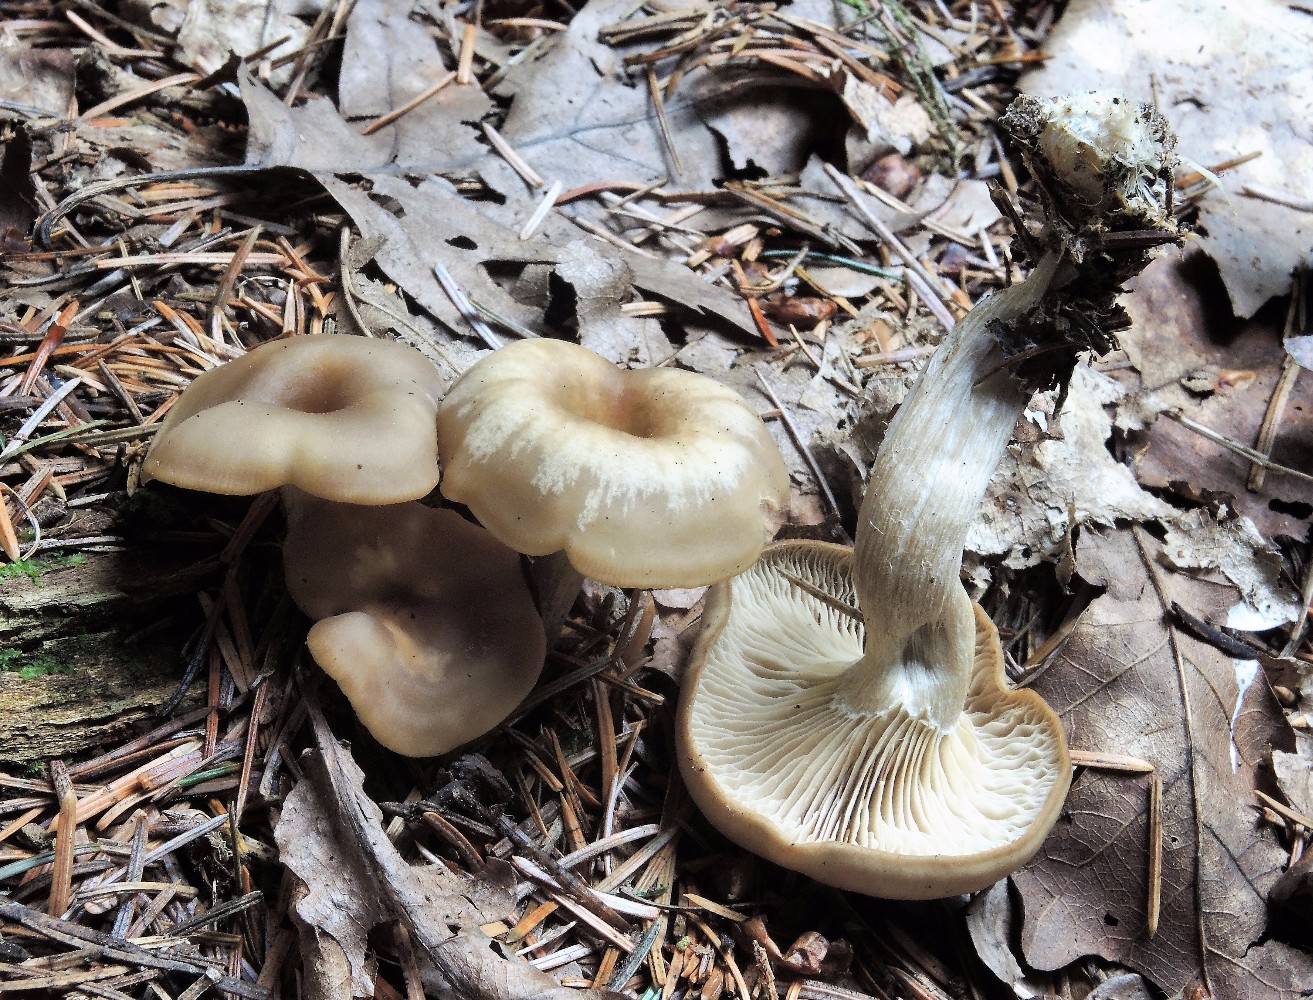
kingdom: Fungi
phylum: Basidiomycota
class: Agaricomycetes
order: Agaricales
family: Tricholomataceae
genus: Clitocybe
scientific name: Clitocybe metachroa
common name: grå tragthat
